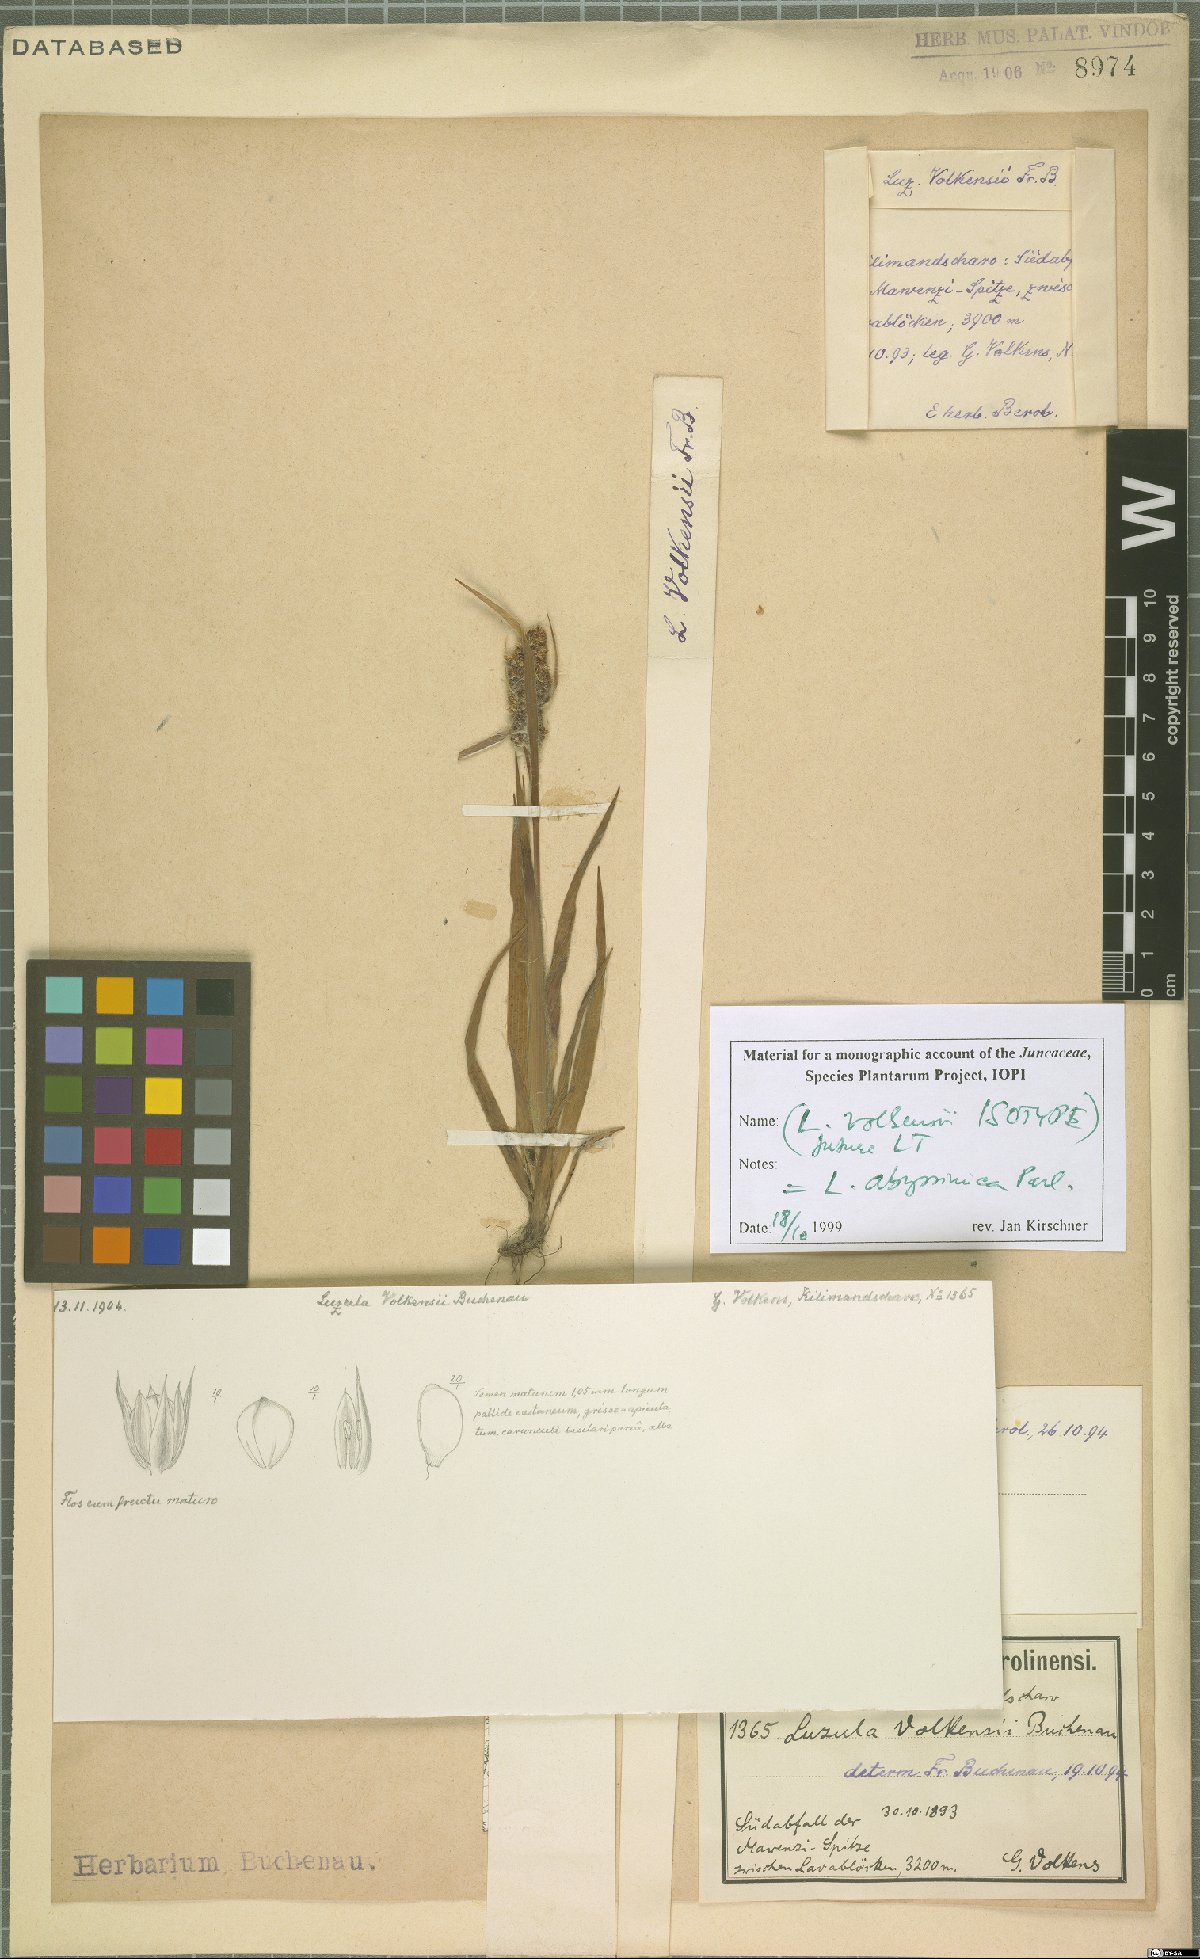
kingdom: Plantae
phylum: Tracheophyta
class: Liliopsida
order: Poales
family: Juncaceae
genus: Luzula
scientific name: Luzula abyssinica
